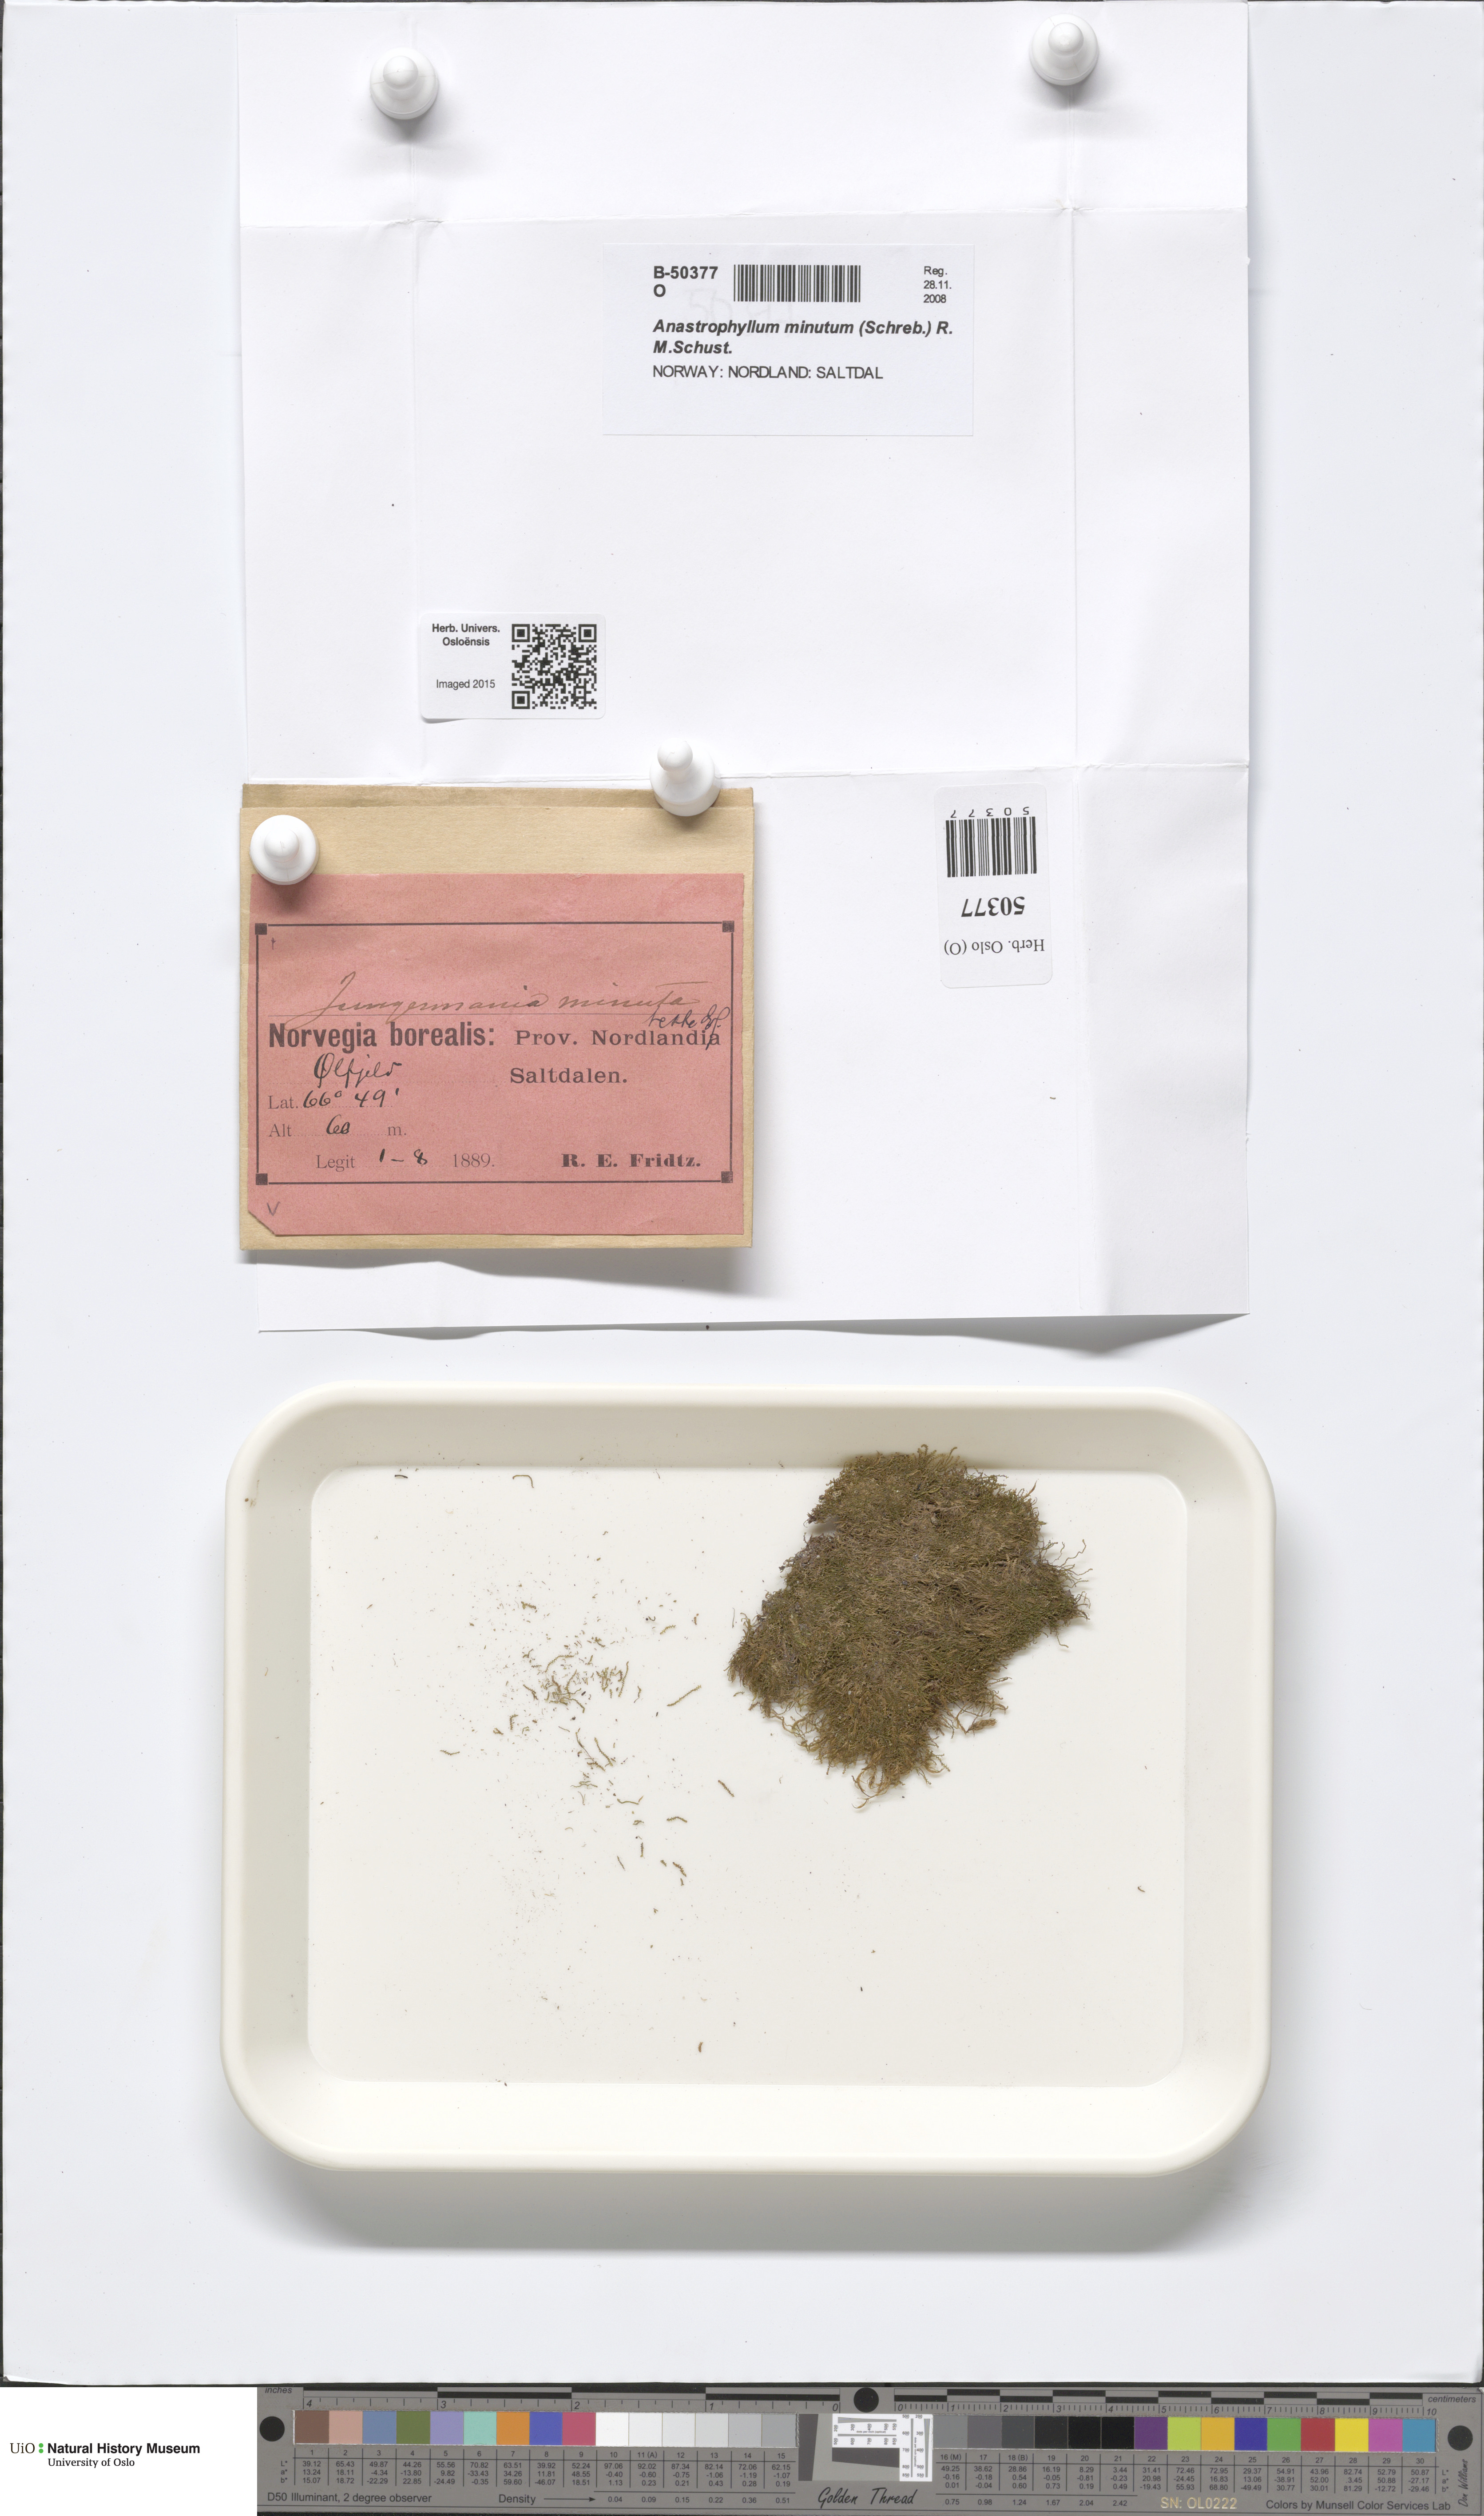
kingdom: Plantae
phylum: Marchantiophyta
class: Jungermanniopsida
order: Jungermanniales
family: Anastrophyllaceae
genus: Sphenolobus
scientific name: Sphenolobus minutus
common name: Comb notchwort
